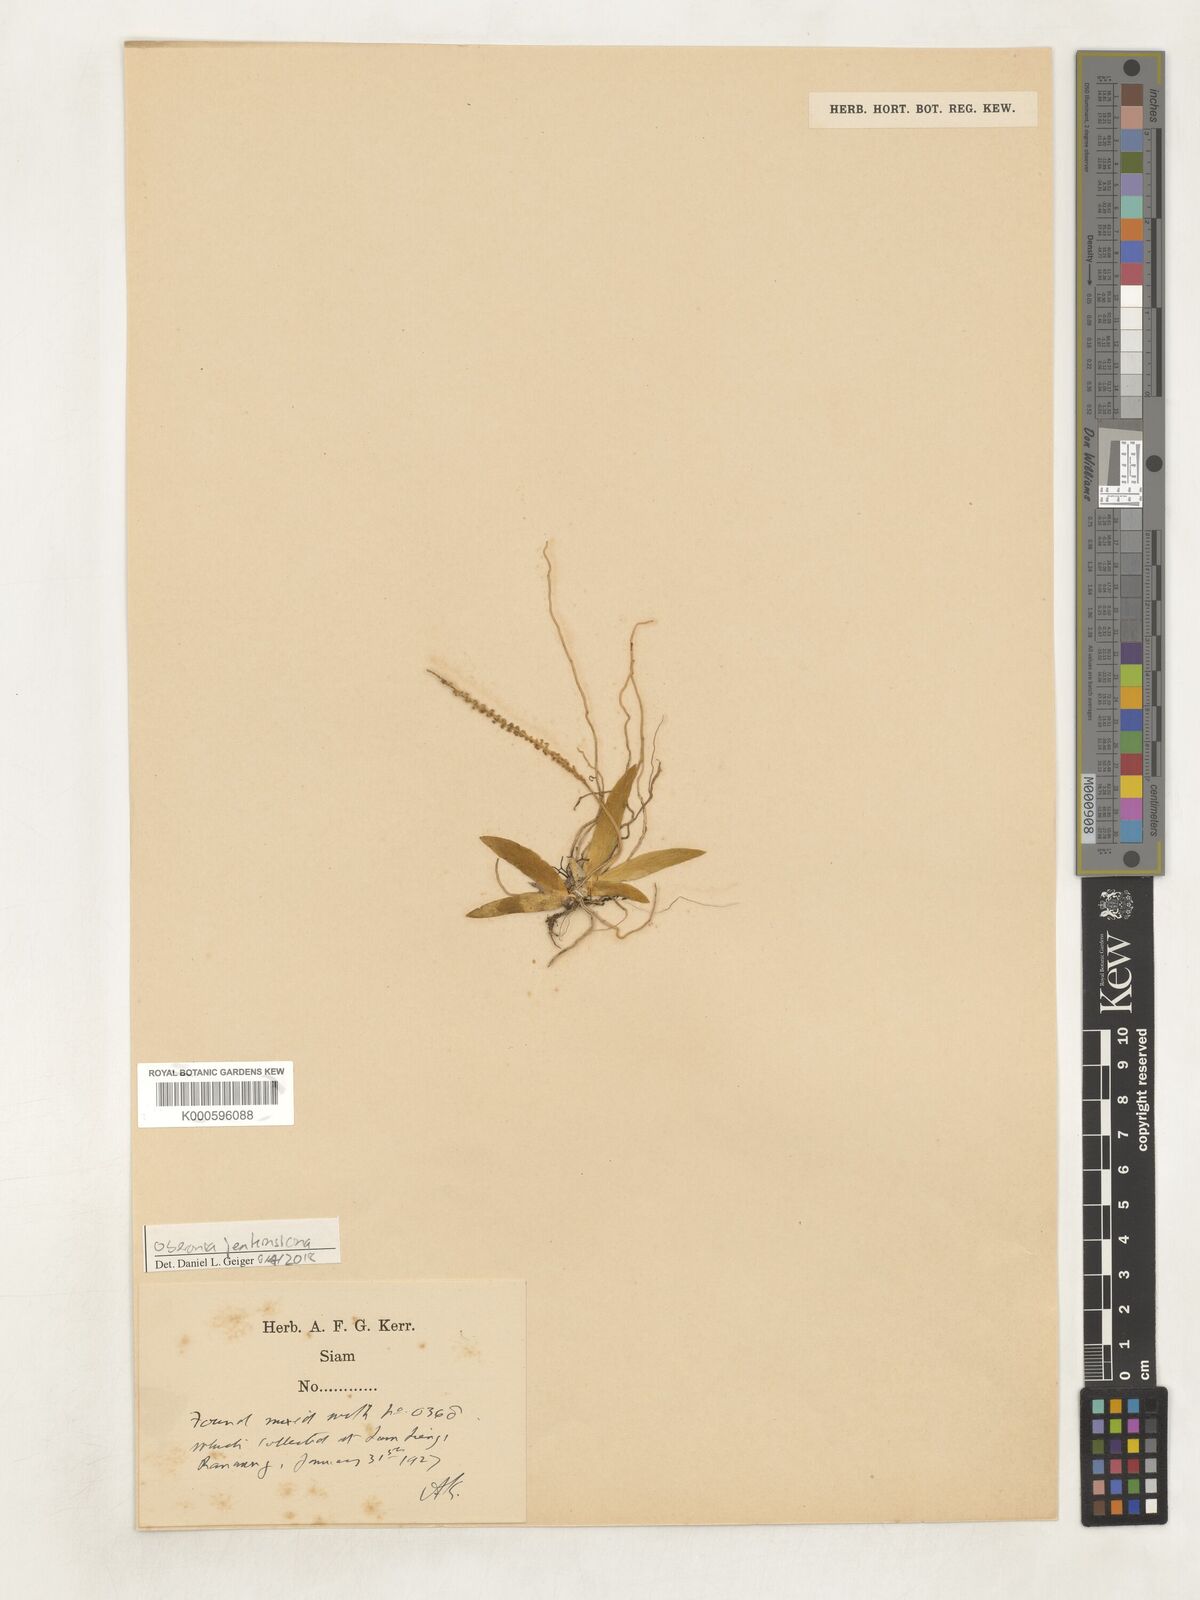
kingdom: Plantae
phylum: Tracheophyta
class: Liliopsida
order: Asparagales
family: Orchidaceae
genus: Oberonia
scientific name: Oberonia jenkinsiana
